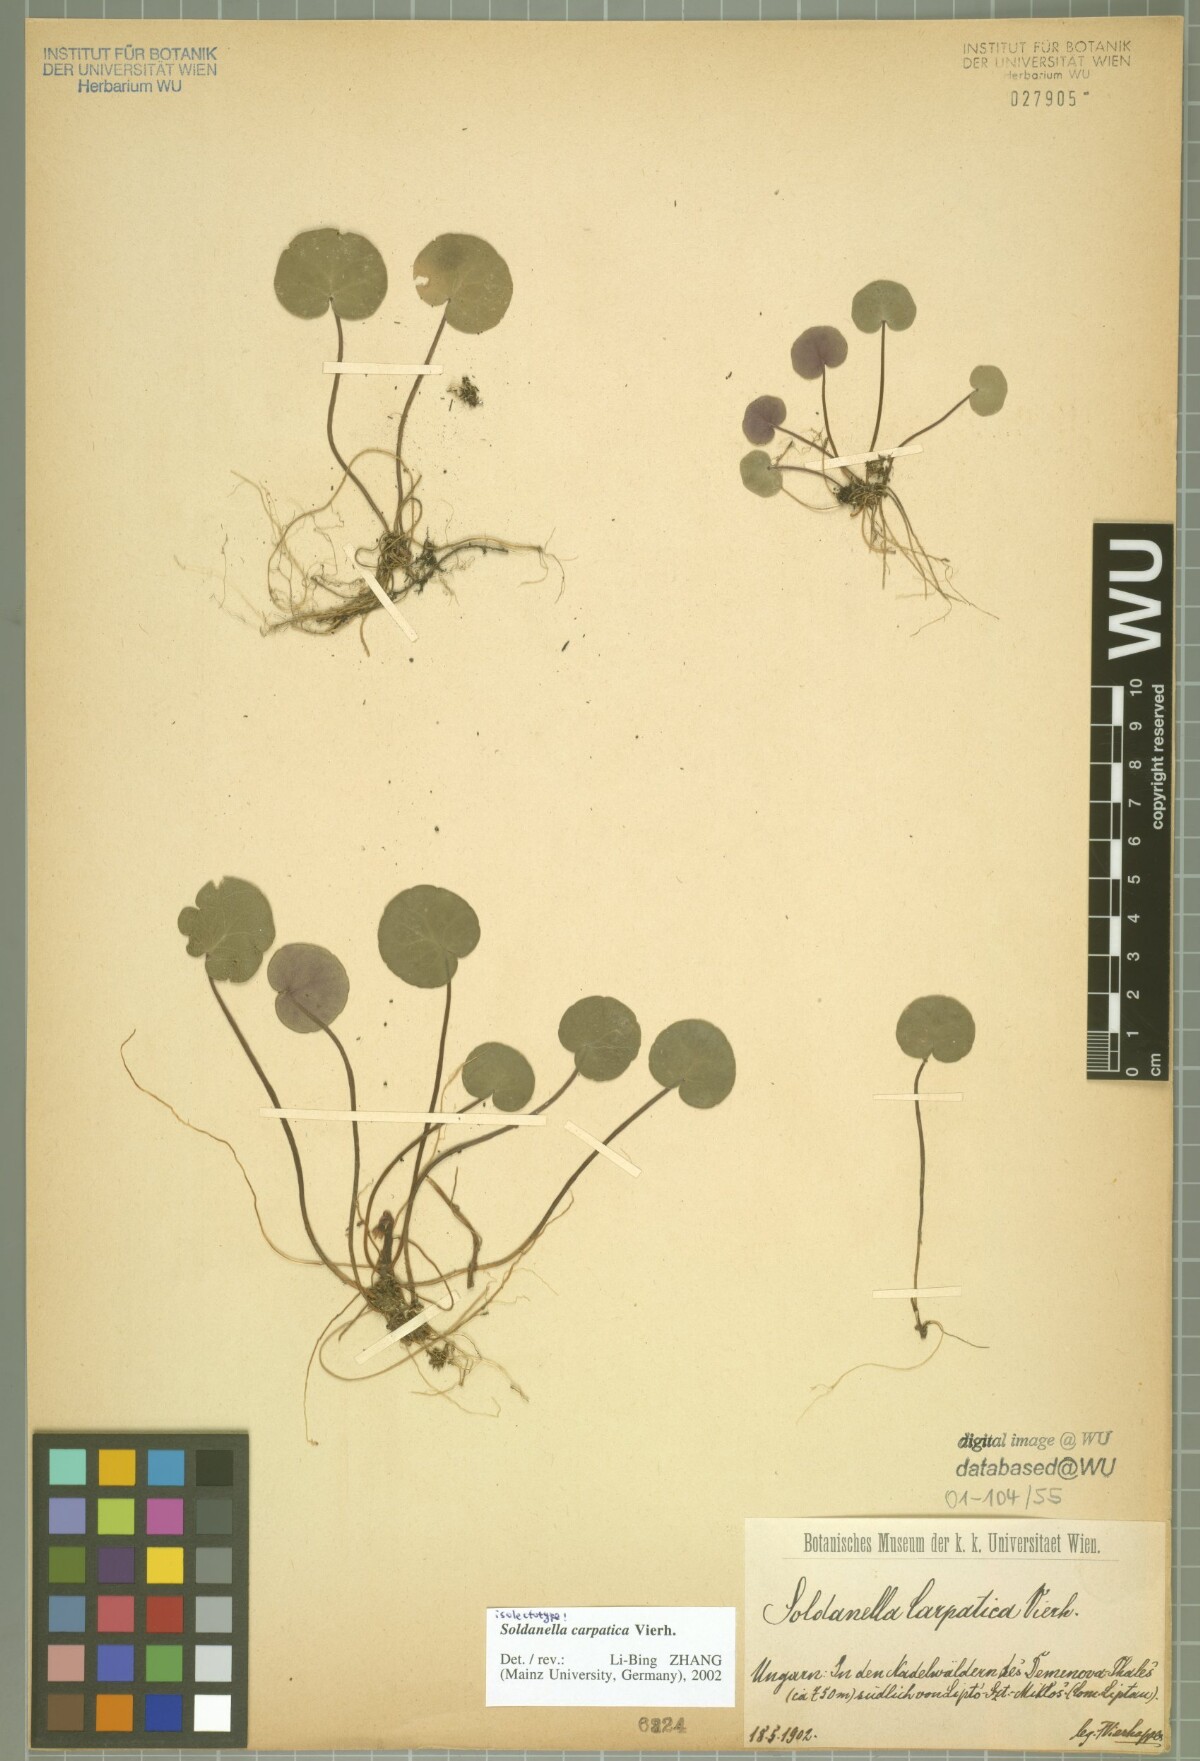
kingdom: Plantae
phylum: Tracheophyta
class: Magnoliopsida
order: Ericales
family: Primulaceae
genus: Soldanella
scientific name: Soldanella carpatica
